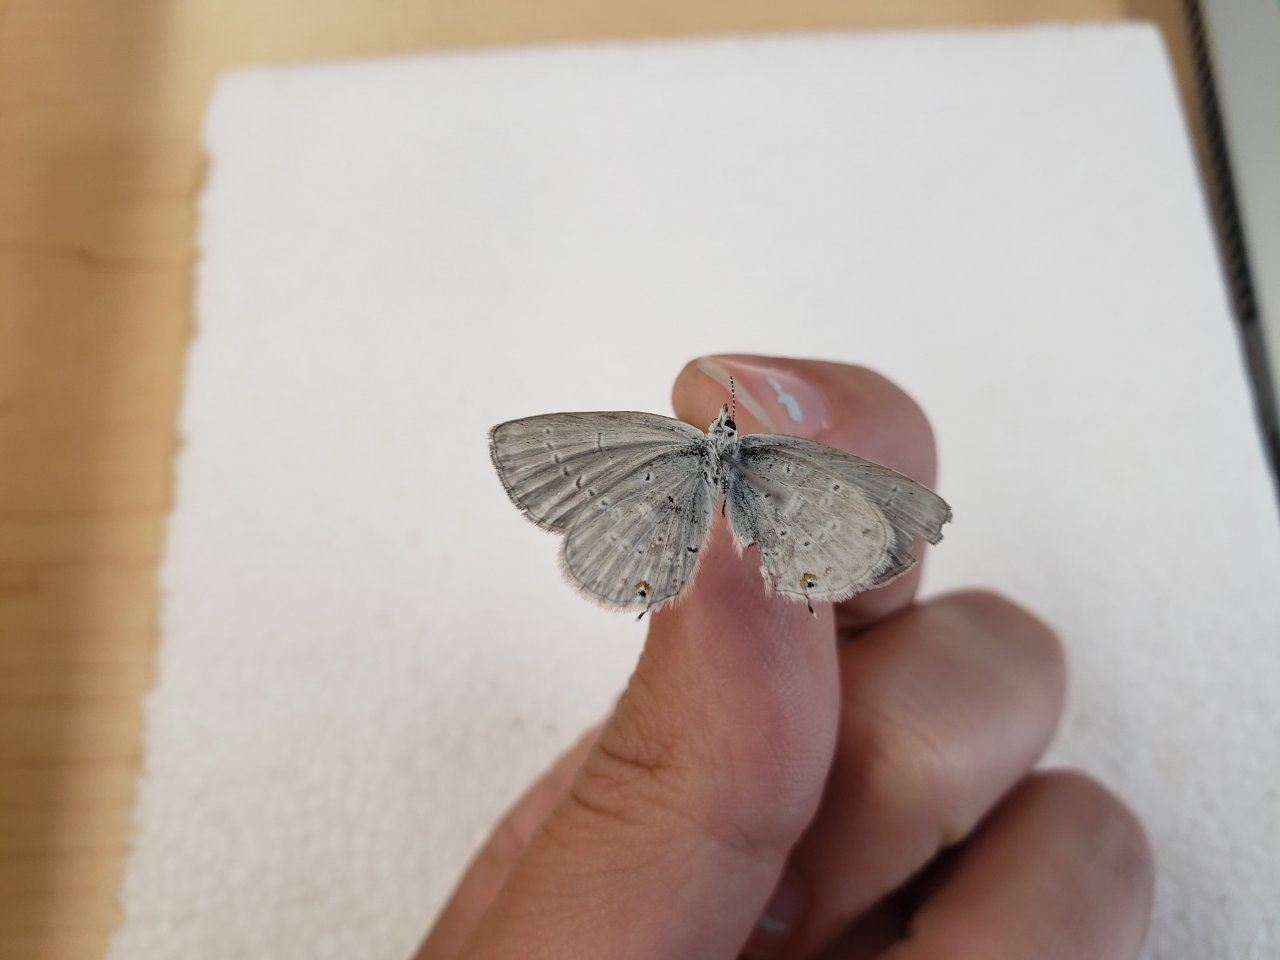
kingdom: Animalia
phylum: Arthropoda
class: Insecta
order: Lepidoptera
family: Lycaenidae
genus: Elkalyce
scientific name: Elkalyce amyntula
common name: Western Tailed-Blue
